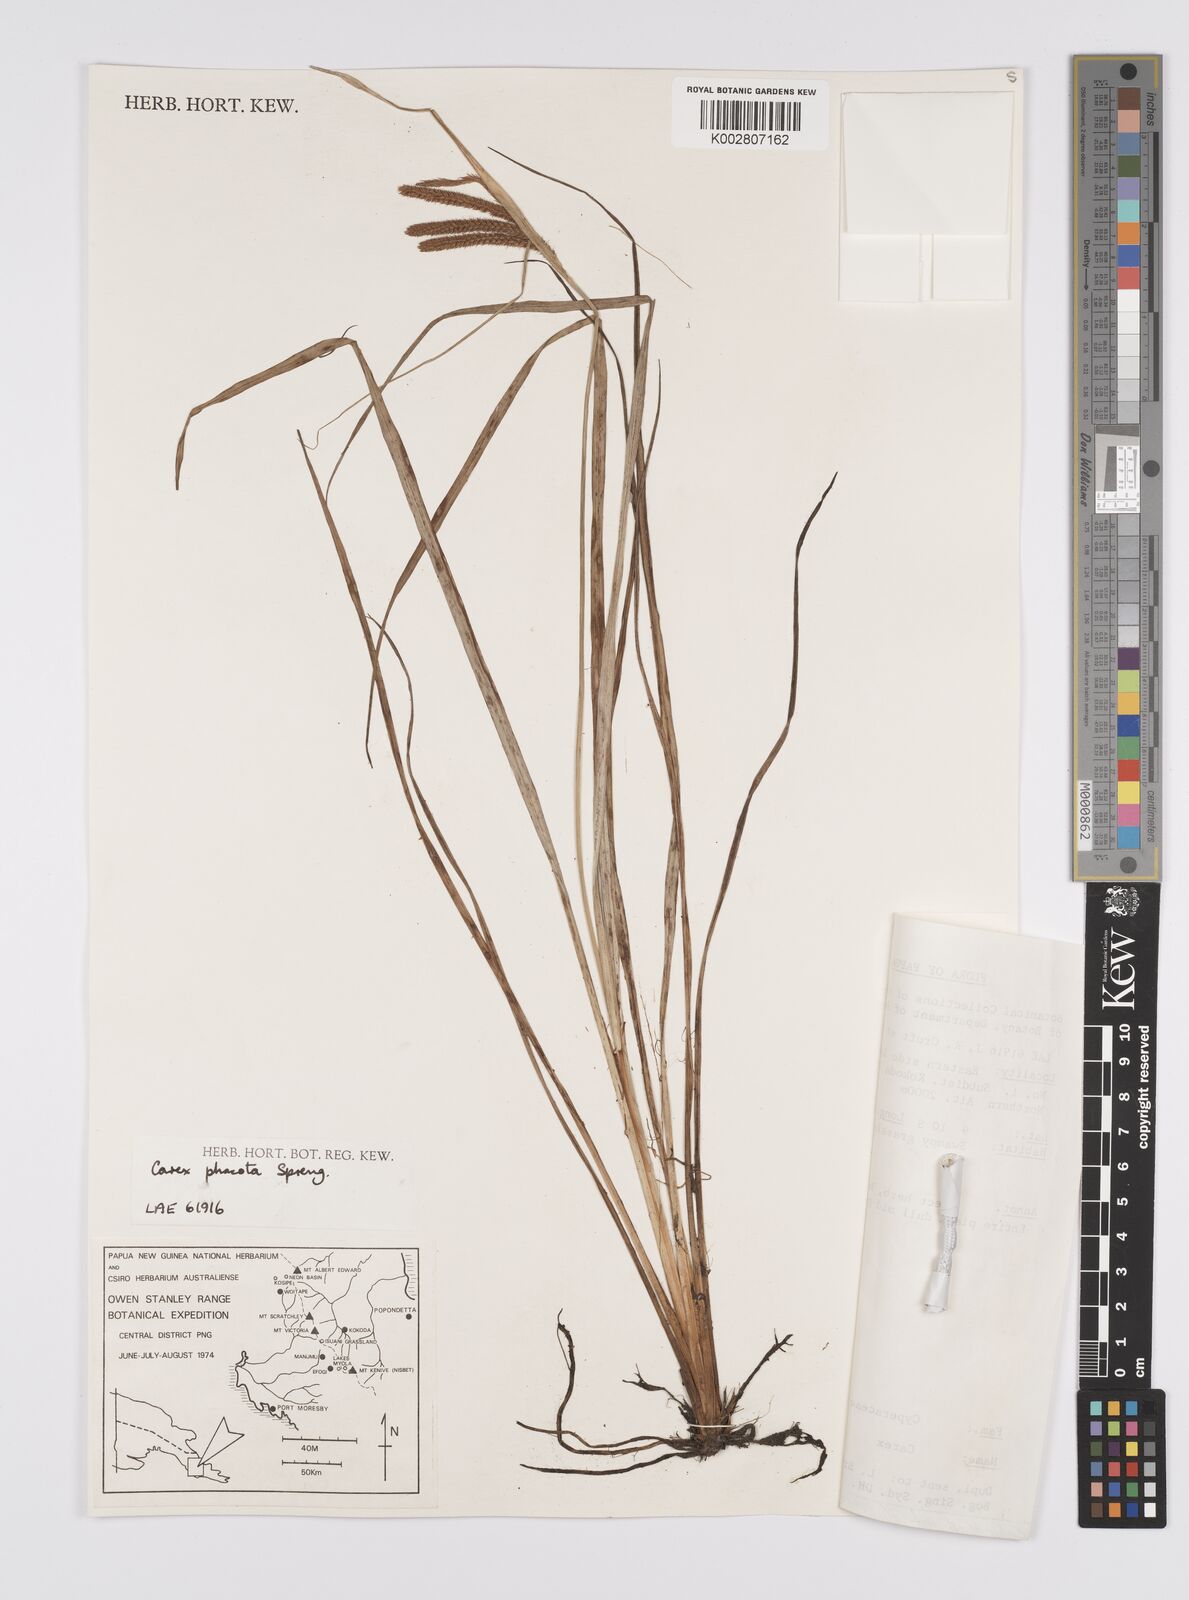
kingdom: Plantae
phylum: Tracheophyta
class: Liliopsida
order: Poales
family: Cyperaceae
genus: Carex
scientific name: Carex phacota
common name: Lakeshore sedge
